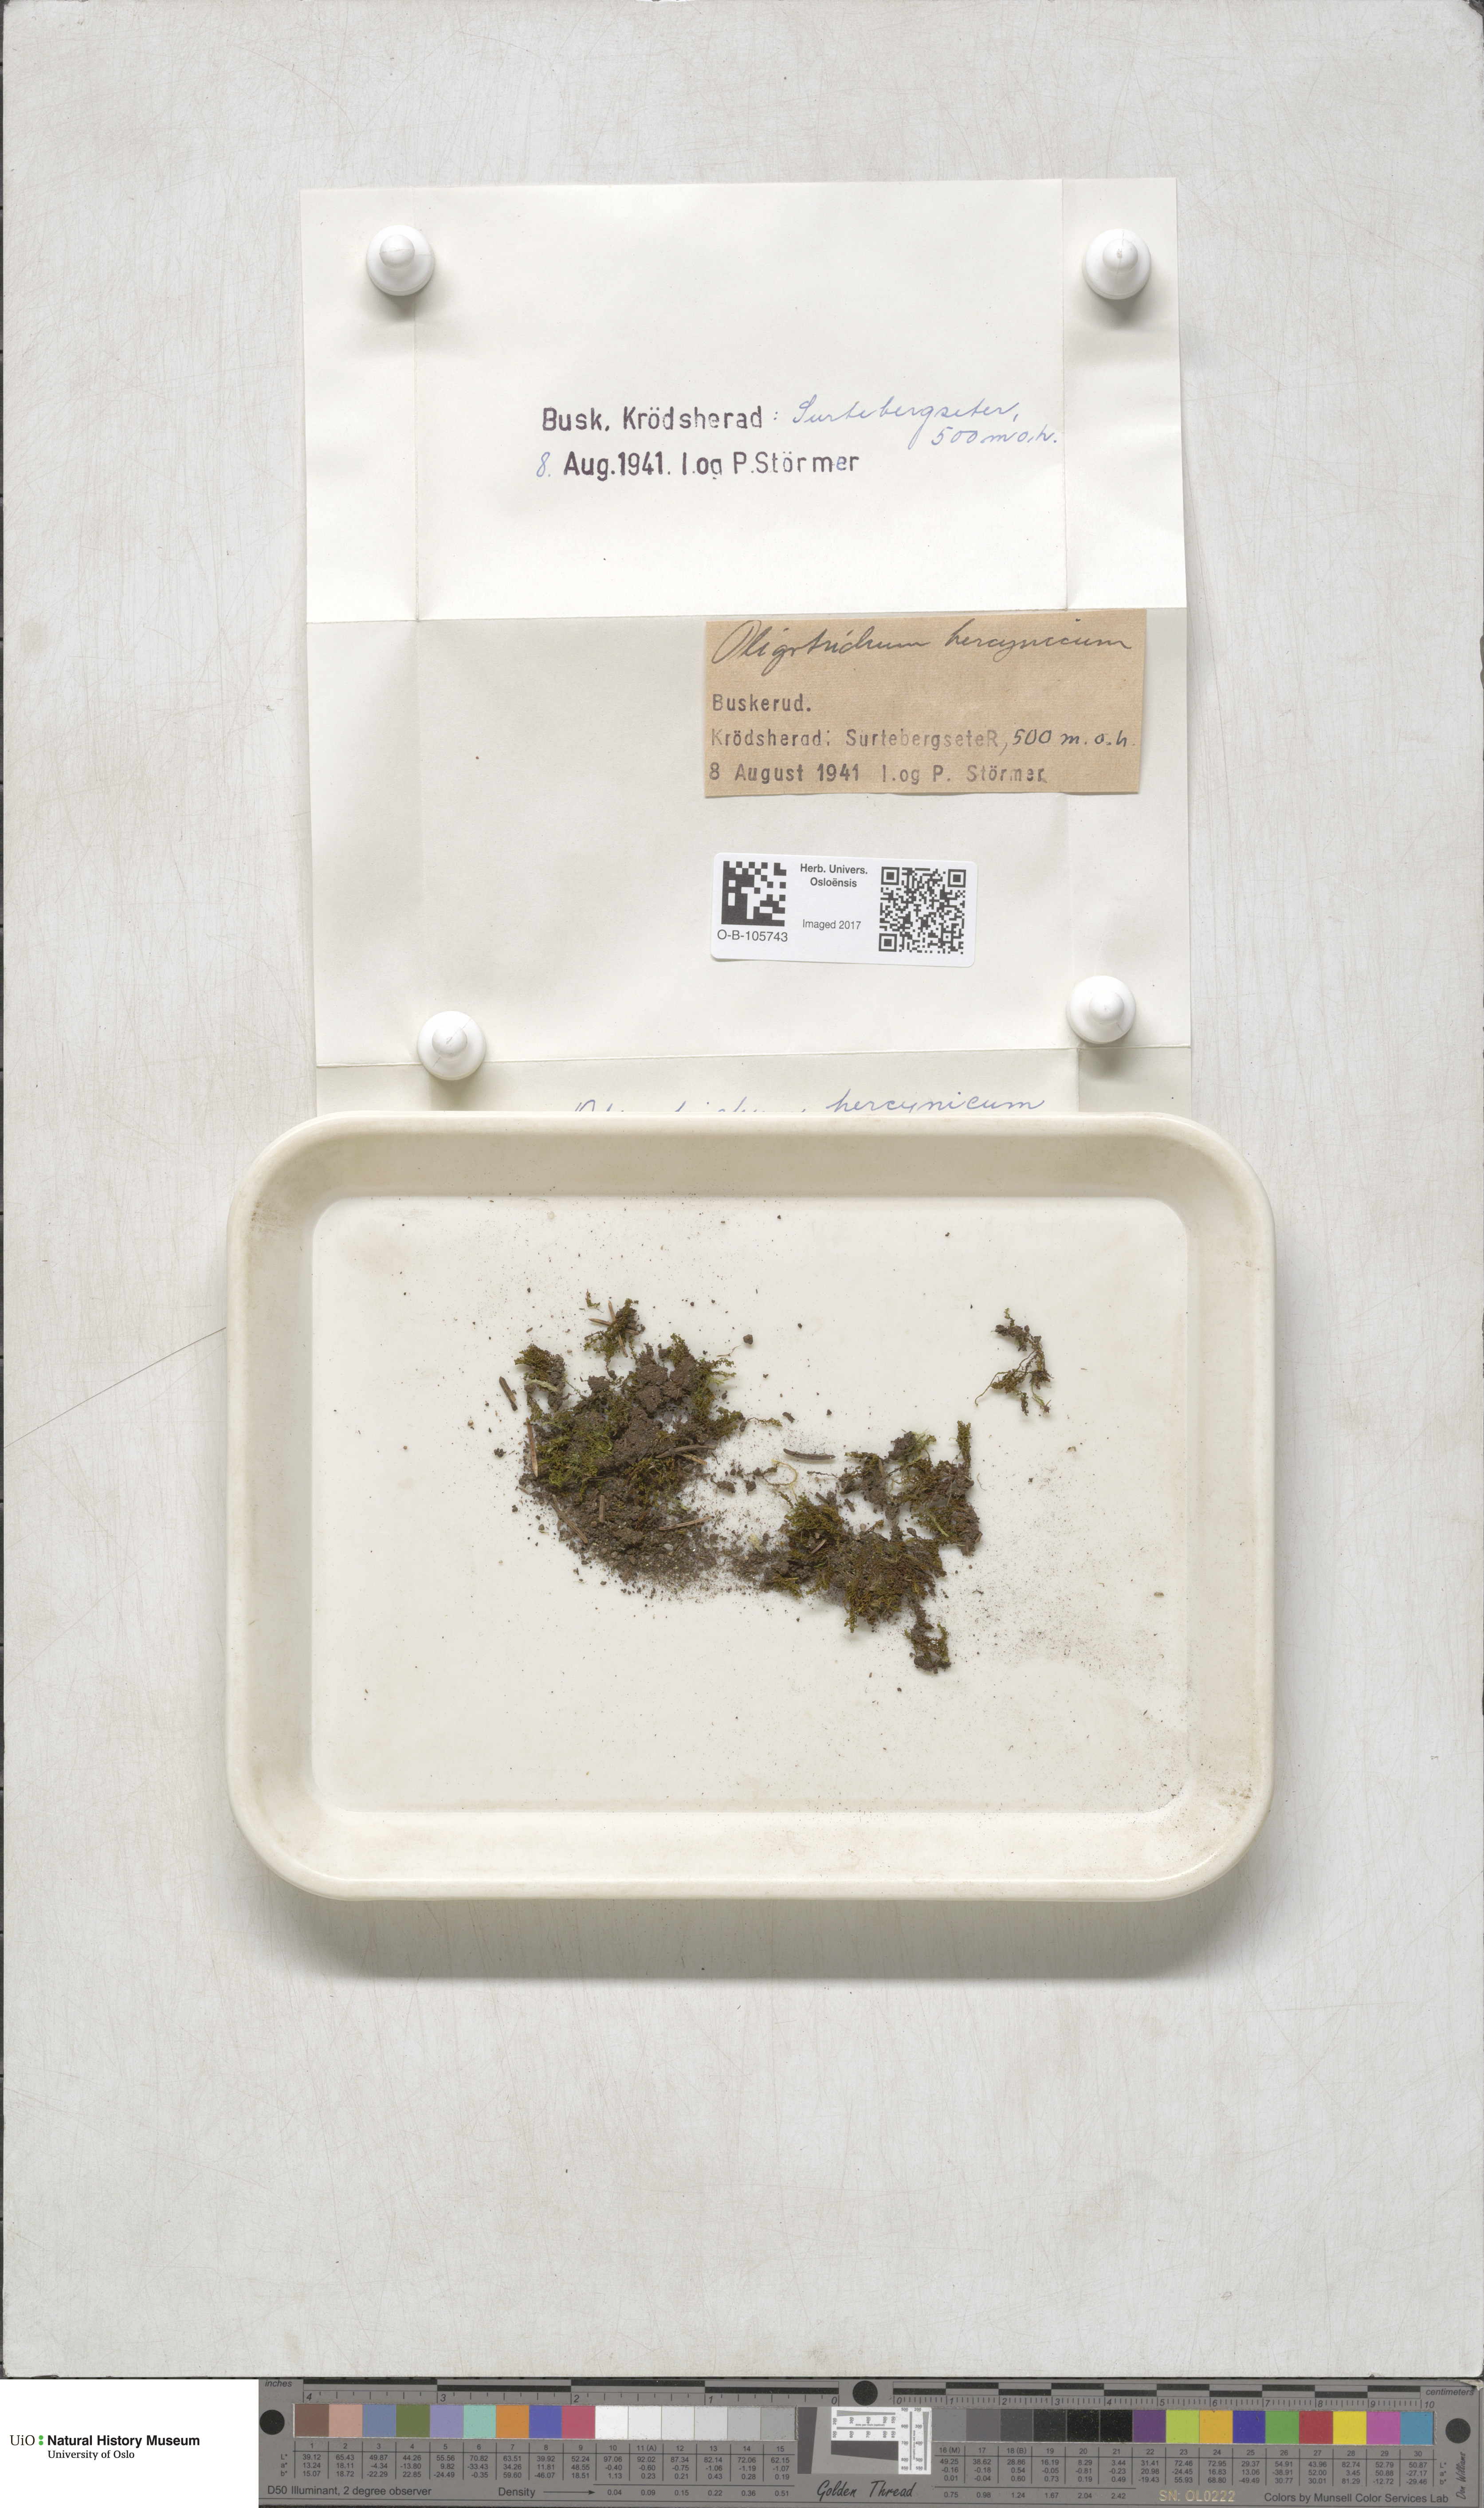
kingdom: Plantae
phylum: Bryophyta
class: Polytrichopsida
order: Polytrichales
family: Polytrichaceae
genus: Oligotrichum
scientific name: Oligotrichum hercynicum
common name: Hercynian hair moss
